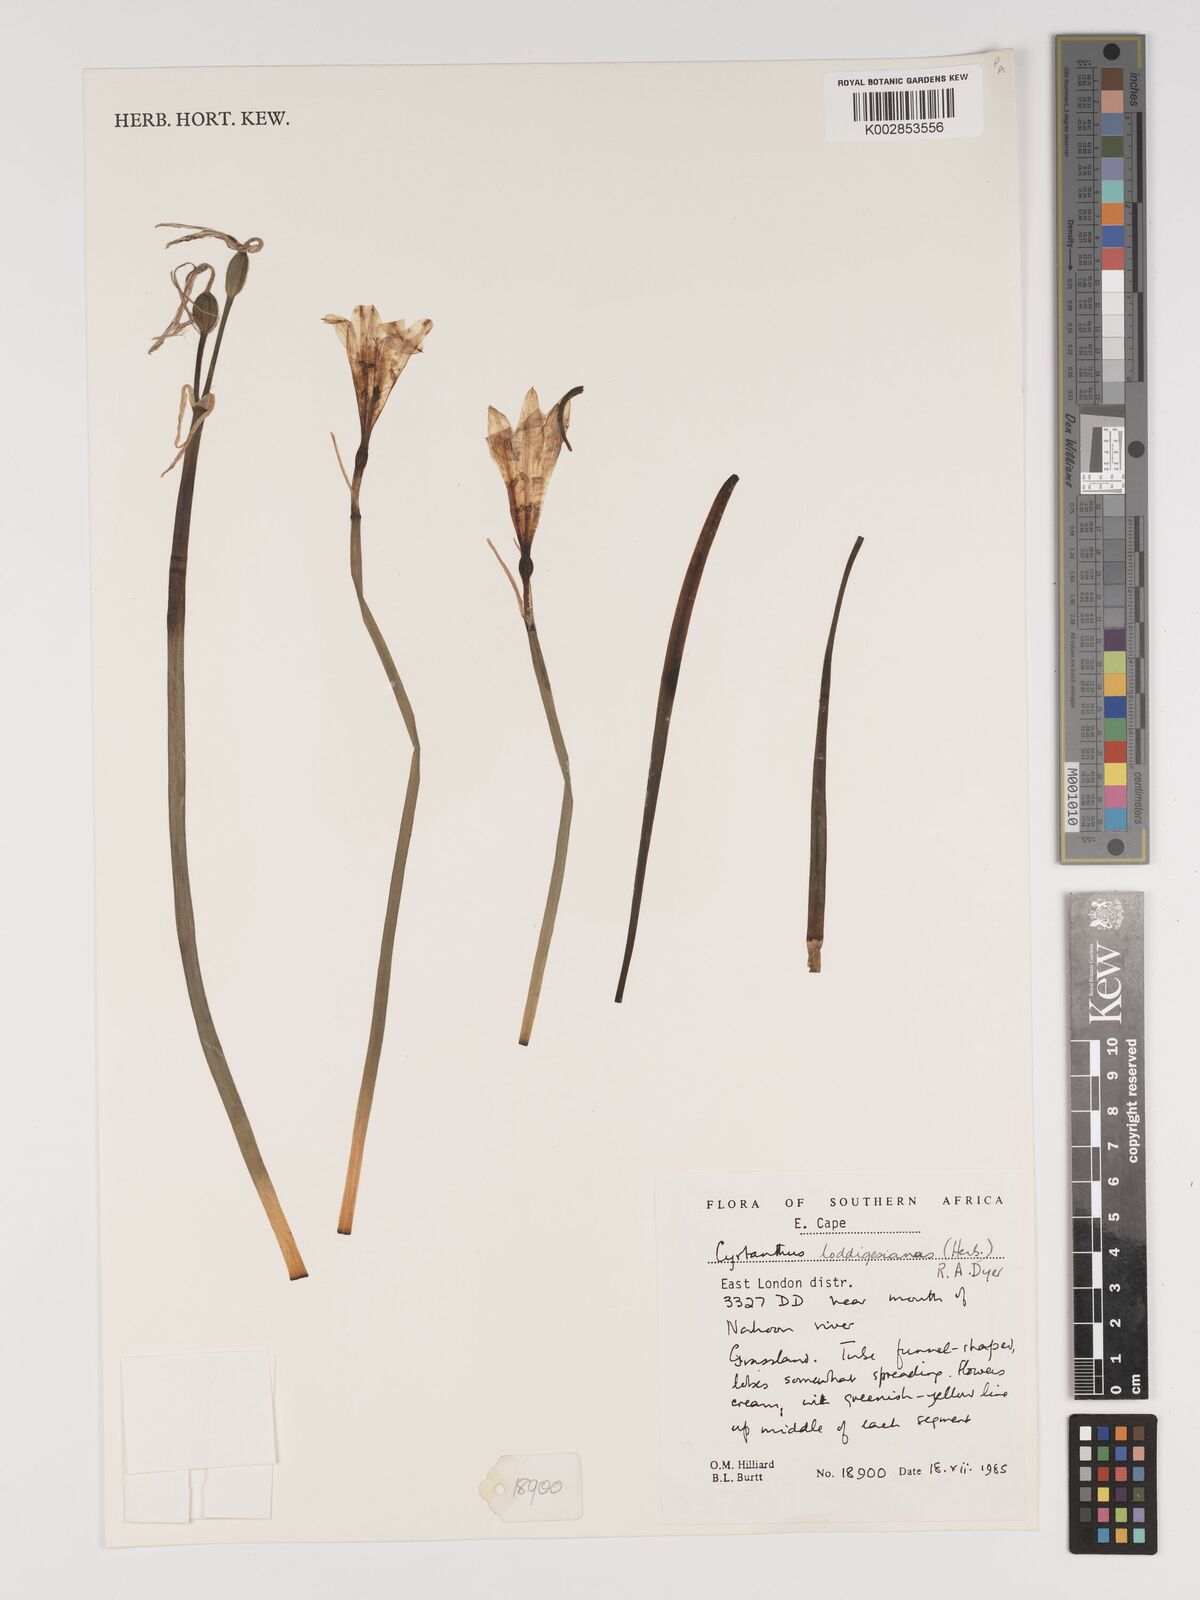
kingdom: Plantae
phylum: Tracheophyta
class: Liliopsida
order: Asparagales
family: Amaryllidaceae
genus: Cyrtanthus
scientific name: Cyrtanthus loddigesianus
